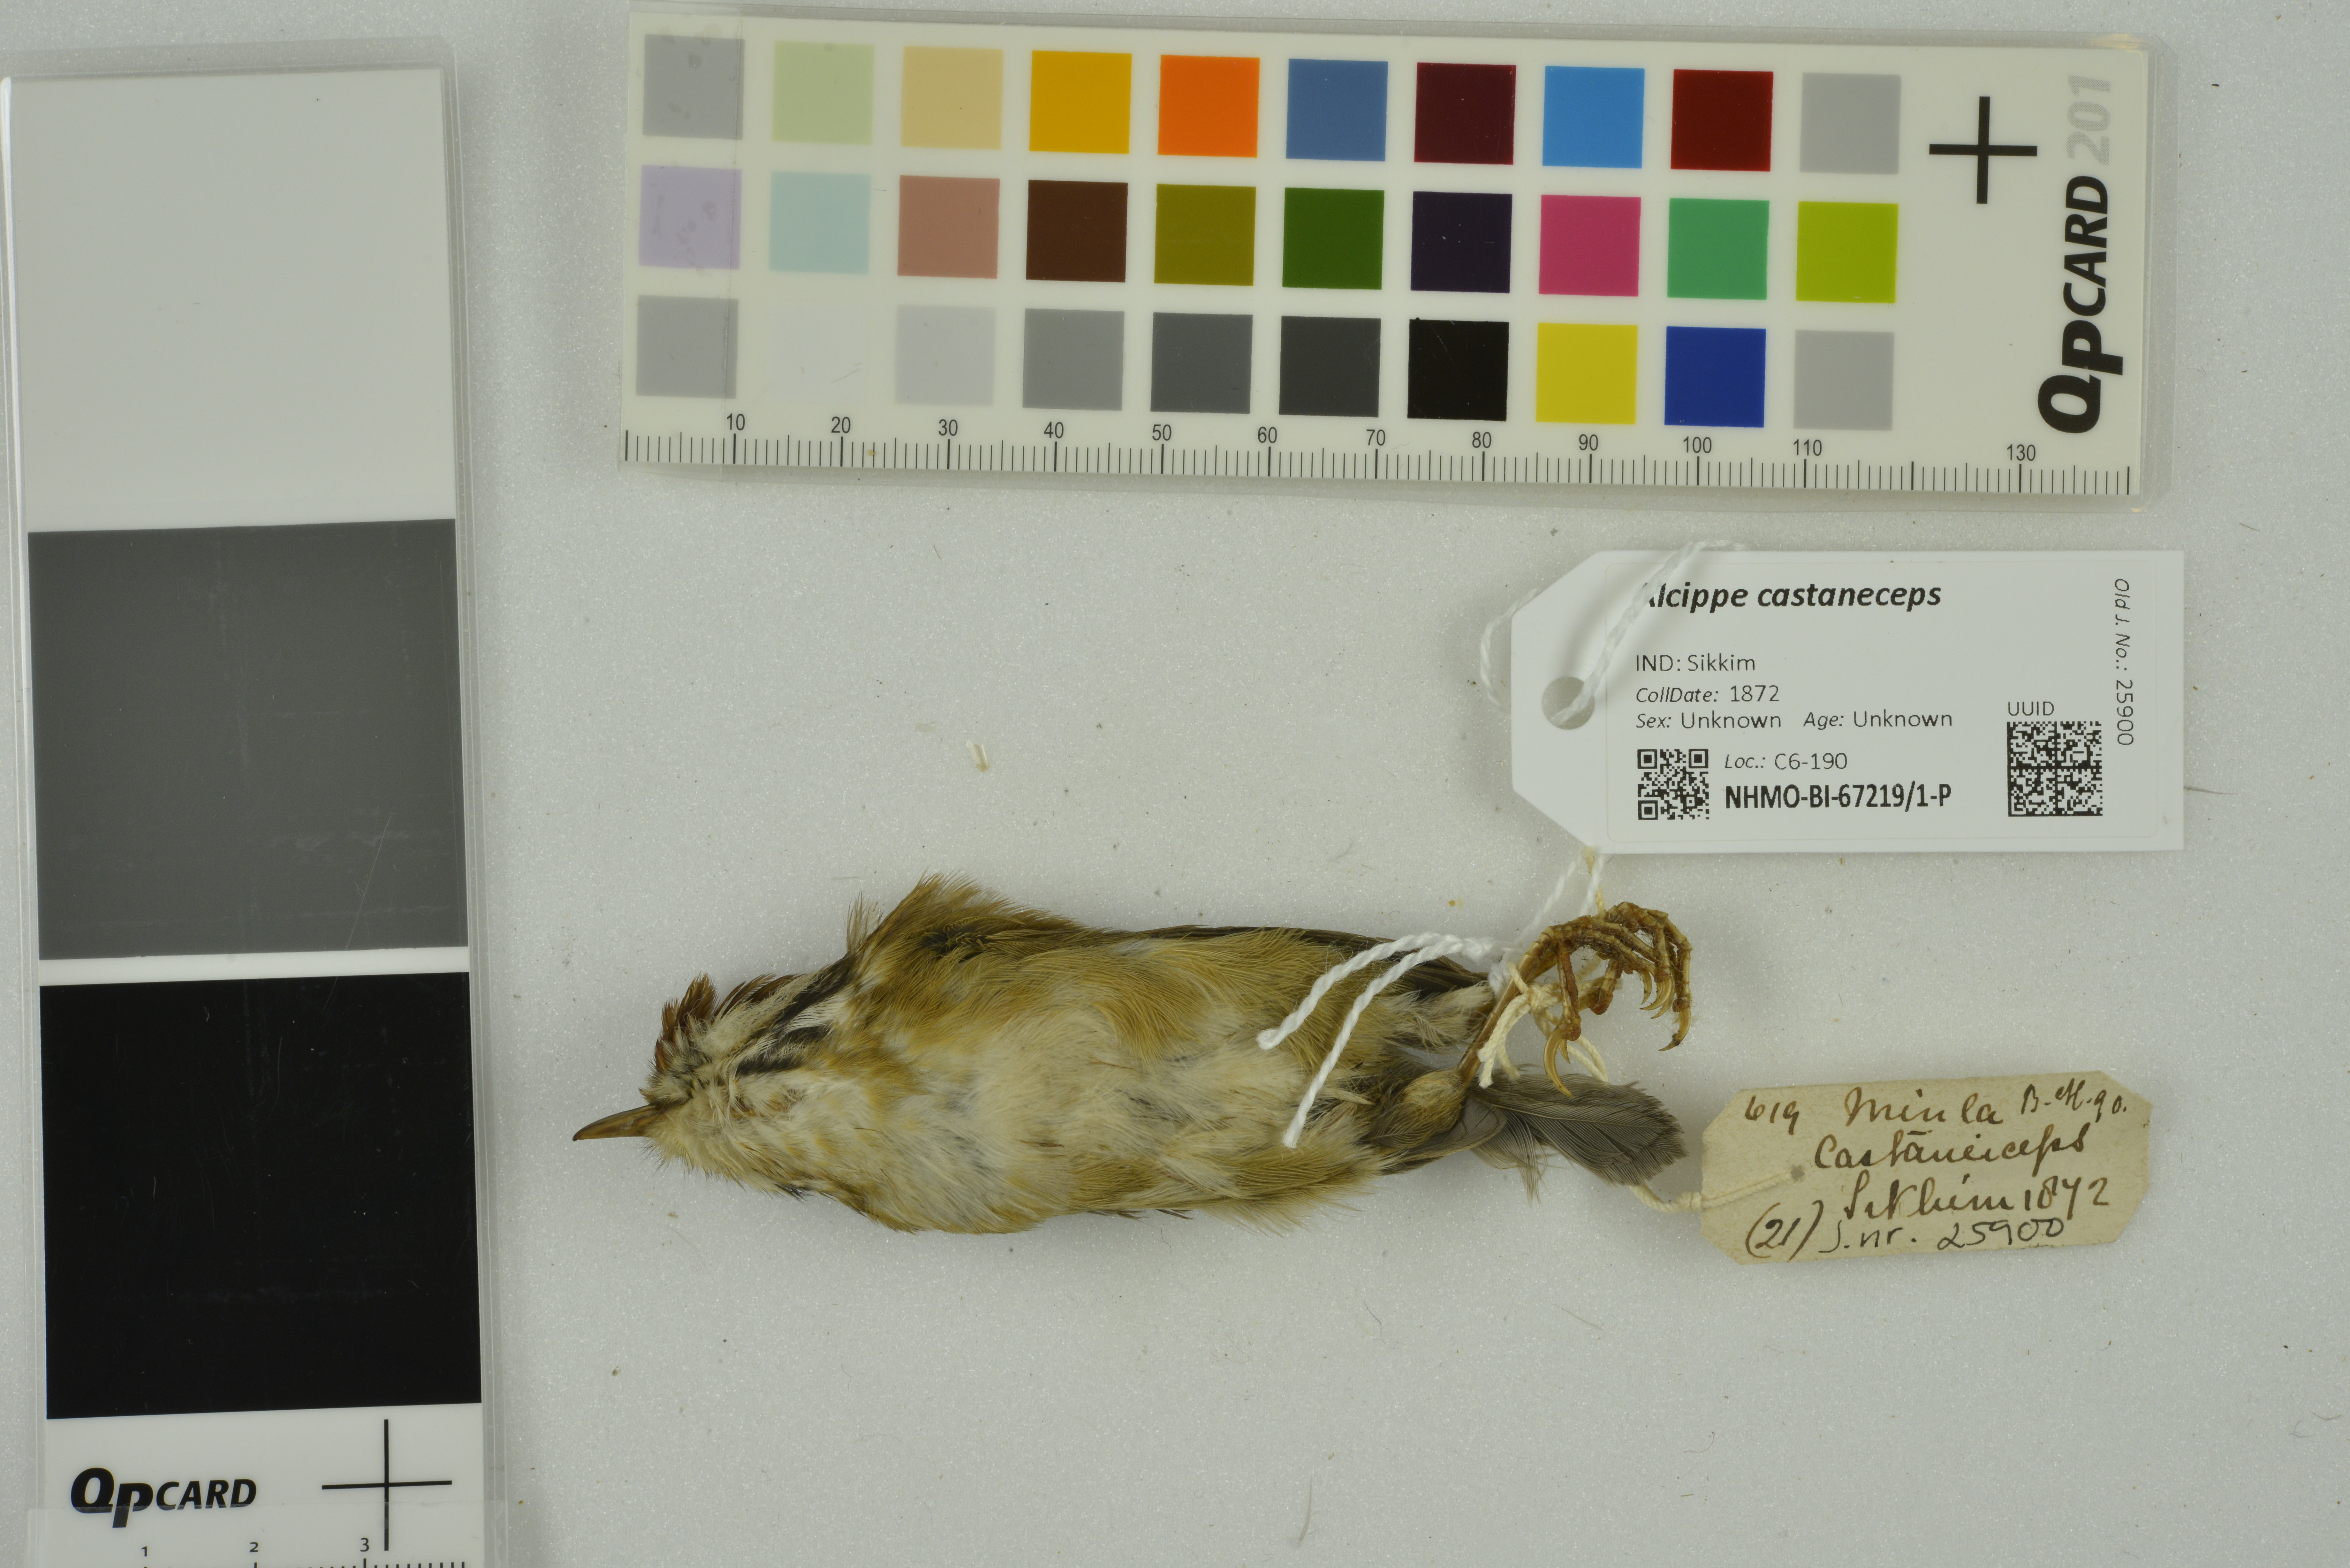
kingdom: Animalia
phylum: Chordata
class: Aves
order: Passeriformes
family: Pellorneidae
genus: Alcippe
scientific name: Alcippe castaneceps
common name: Rufous-winged fulvetta
